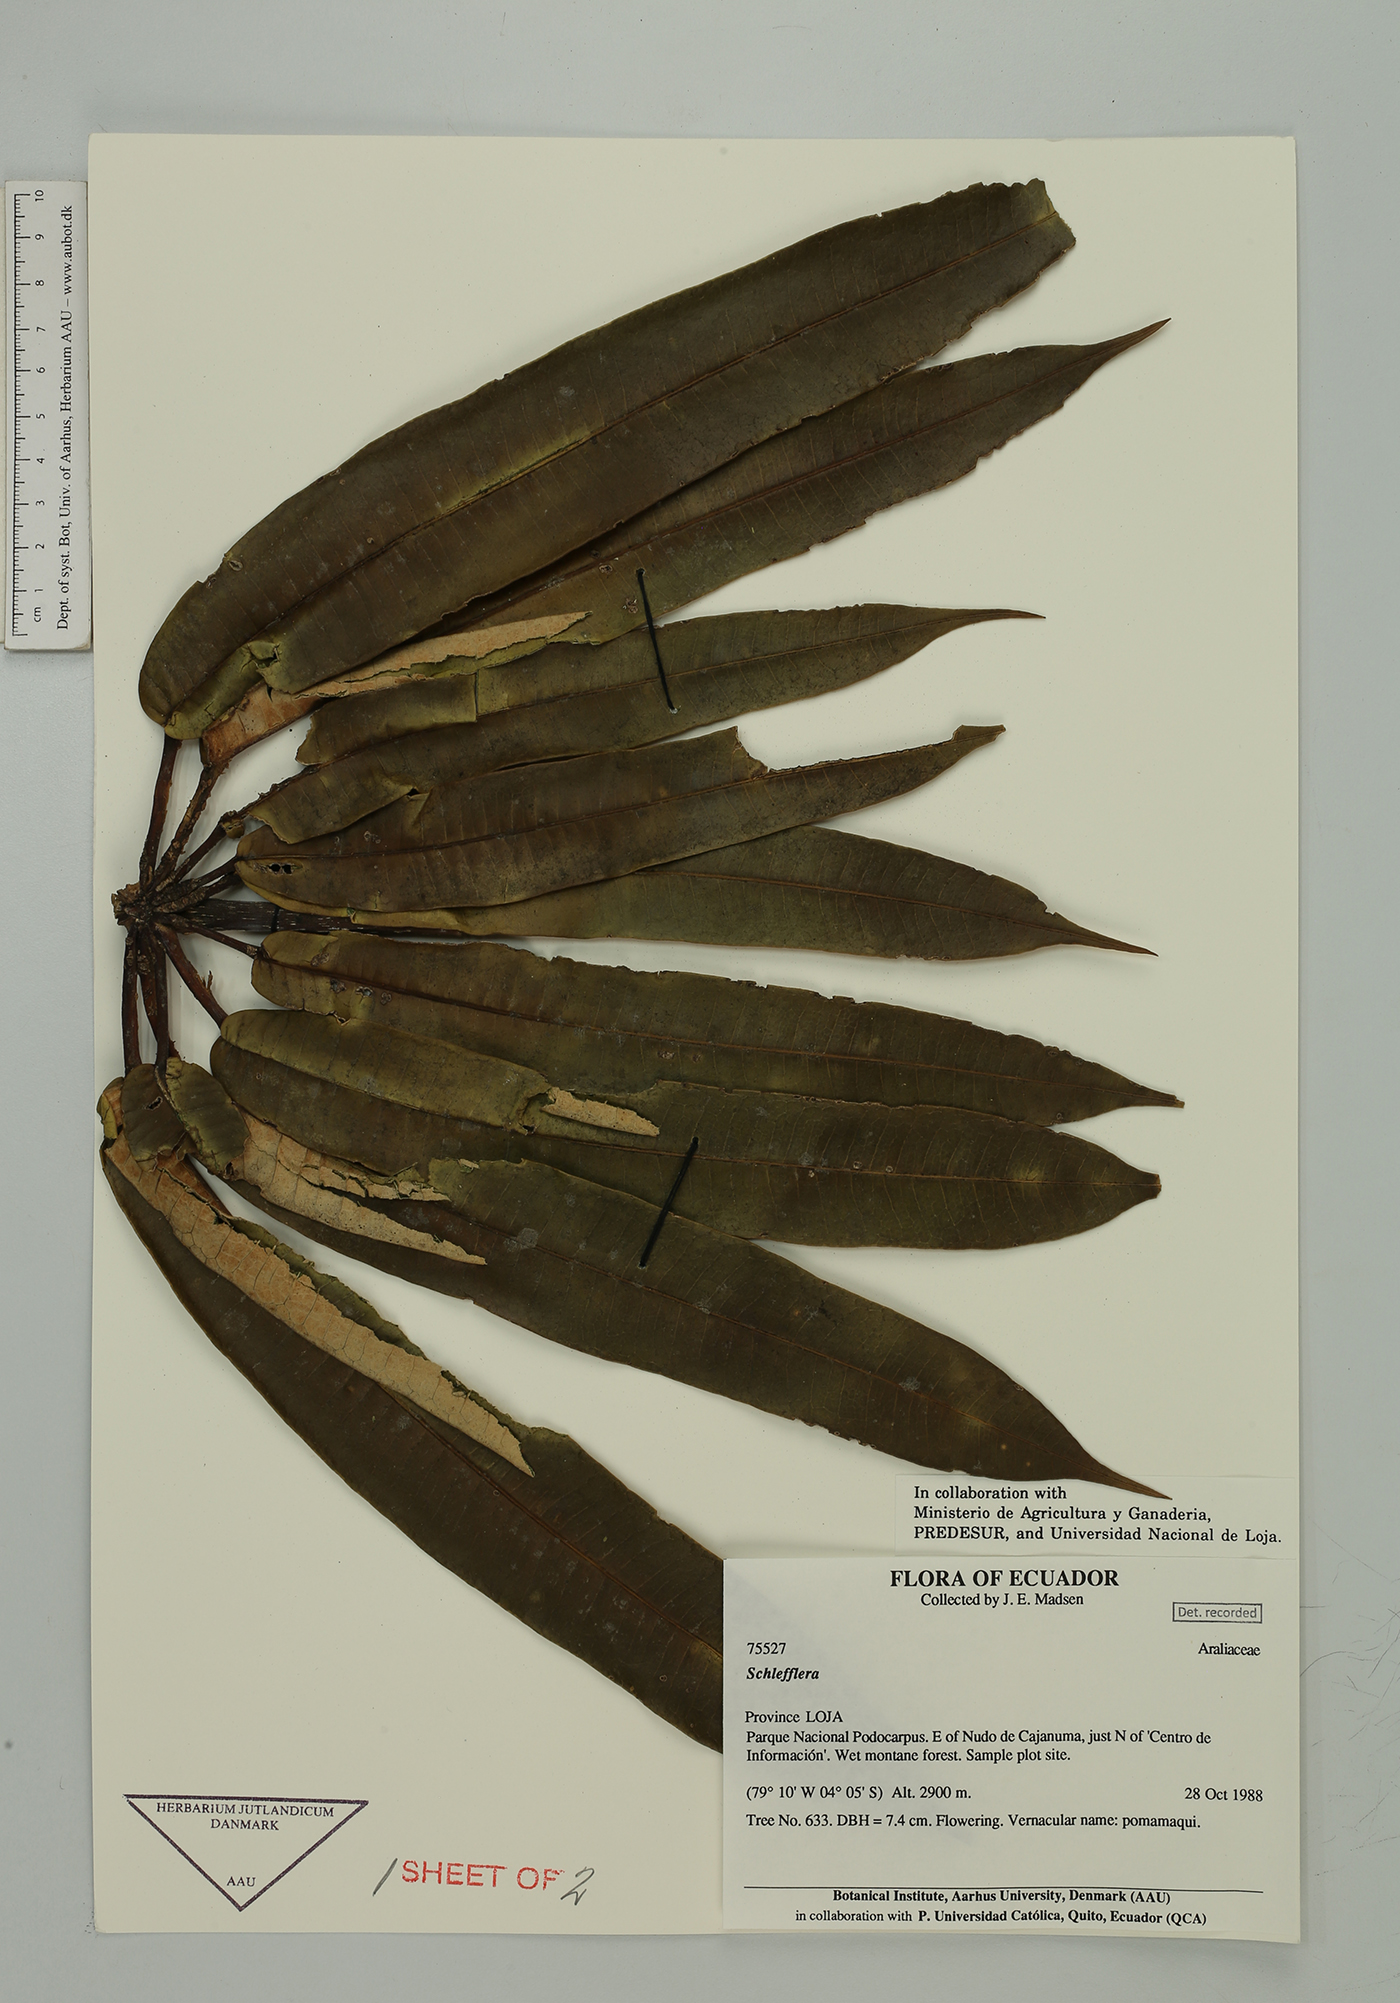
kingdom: Plantae
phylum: Tracheophyta
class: Magnoliopsida
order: Apiales
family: Araliaceae
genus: Sciodaphyllum
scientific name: Sciodaphyllum
